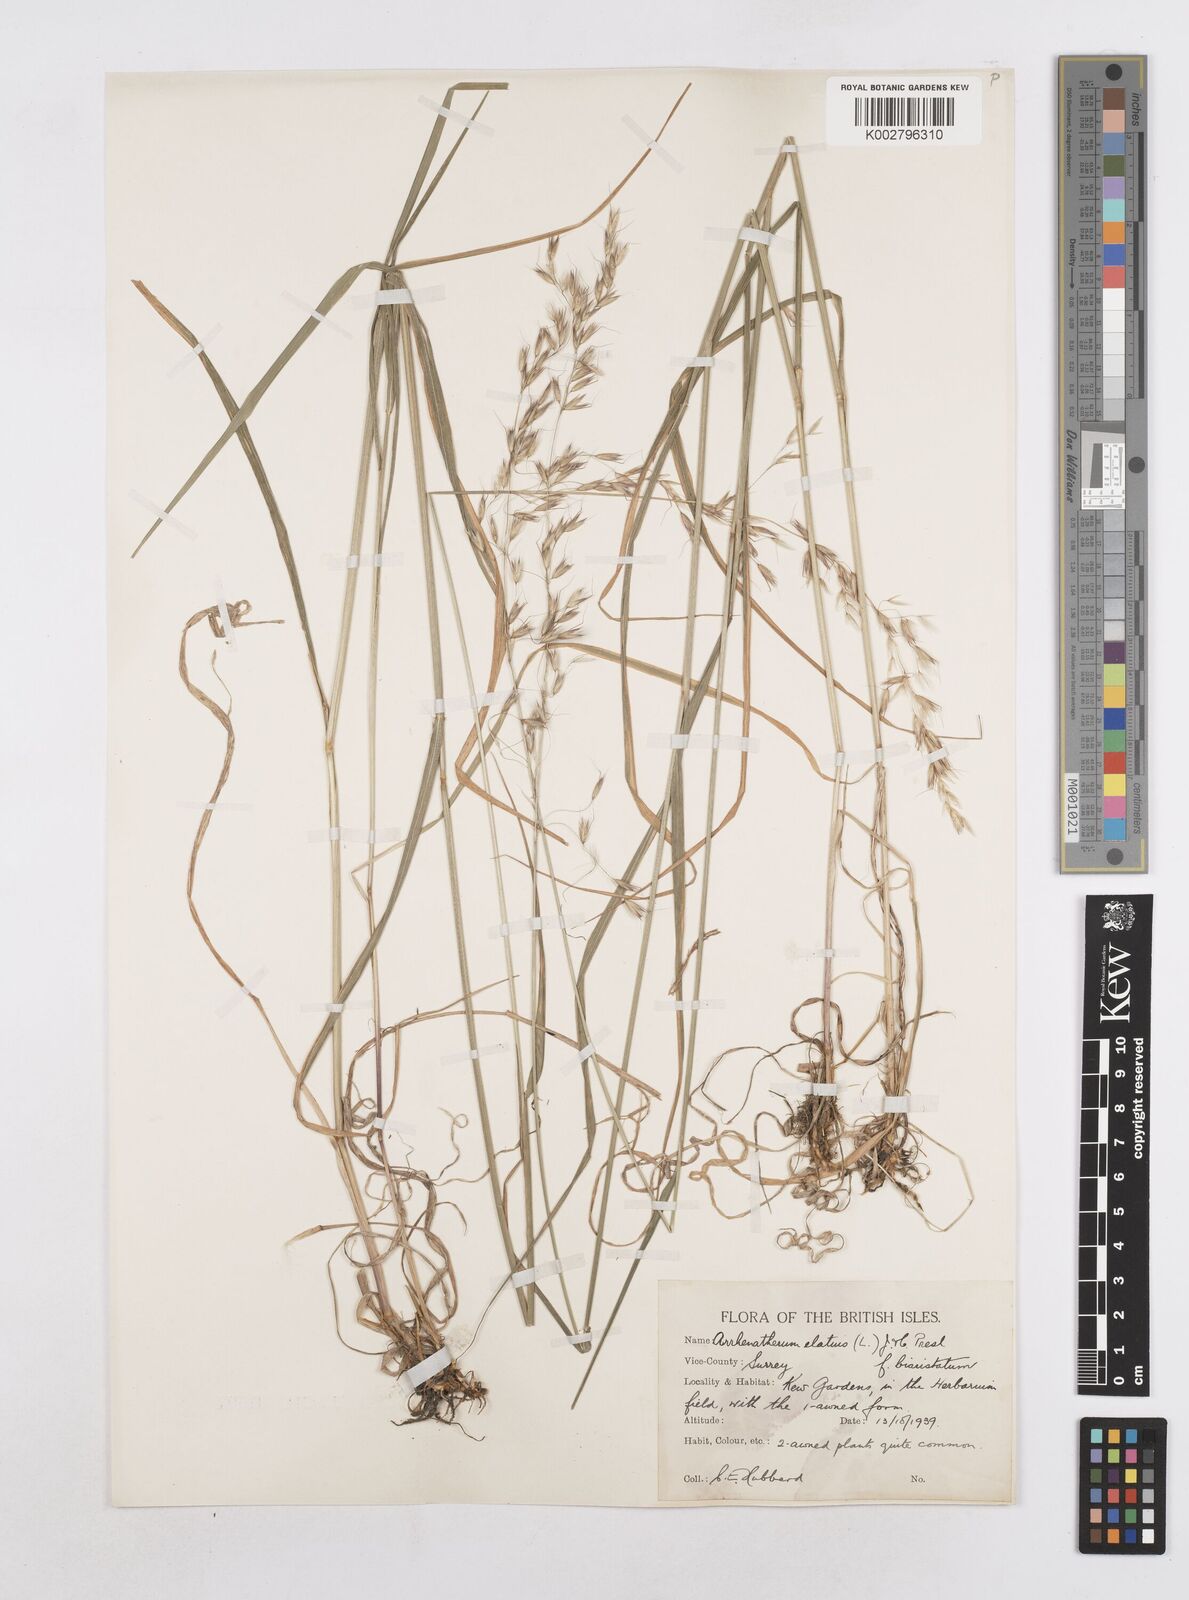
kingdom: Plantae
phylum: Tracheophyta
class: Liliopsida
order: Poales
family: Poaceae
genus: Arrhenatherum
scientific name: Arrhenatherum elatius
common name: Tall oatgrass
